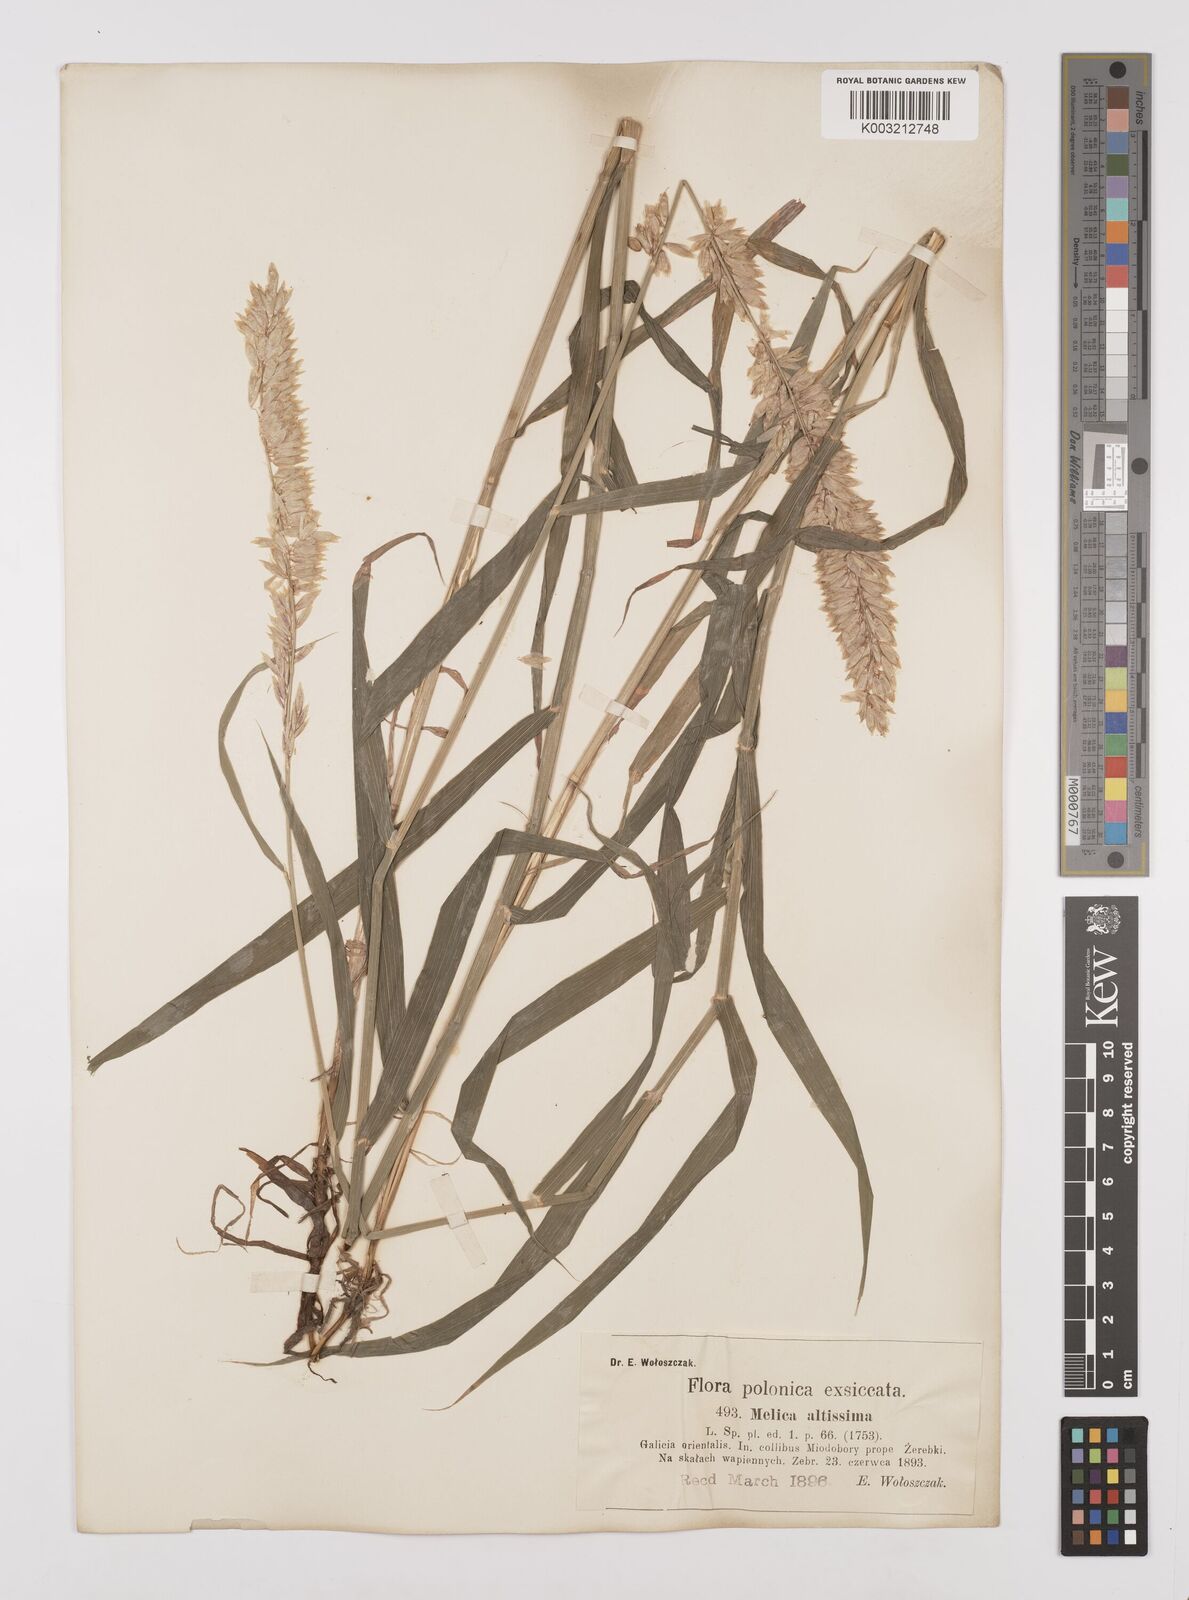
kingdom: Plantae
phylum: Tracheophyta
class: Liliopsida
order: Poales
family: Poaceae
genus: Melica
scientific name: Melica altissima
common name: Siberian melicgrass
